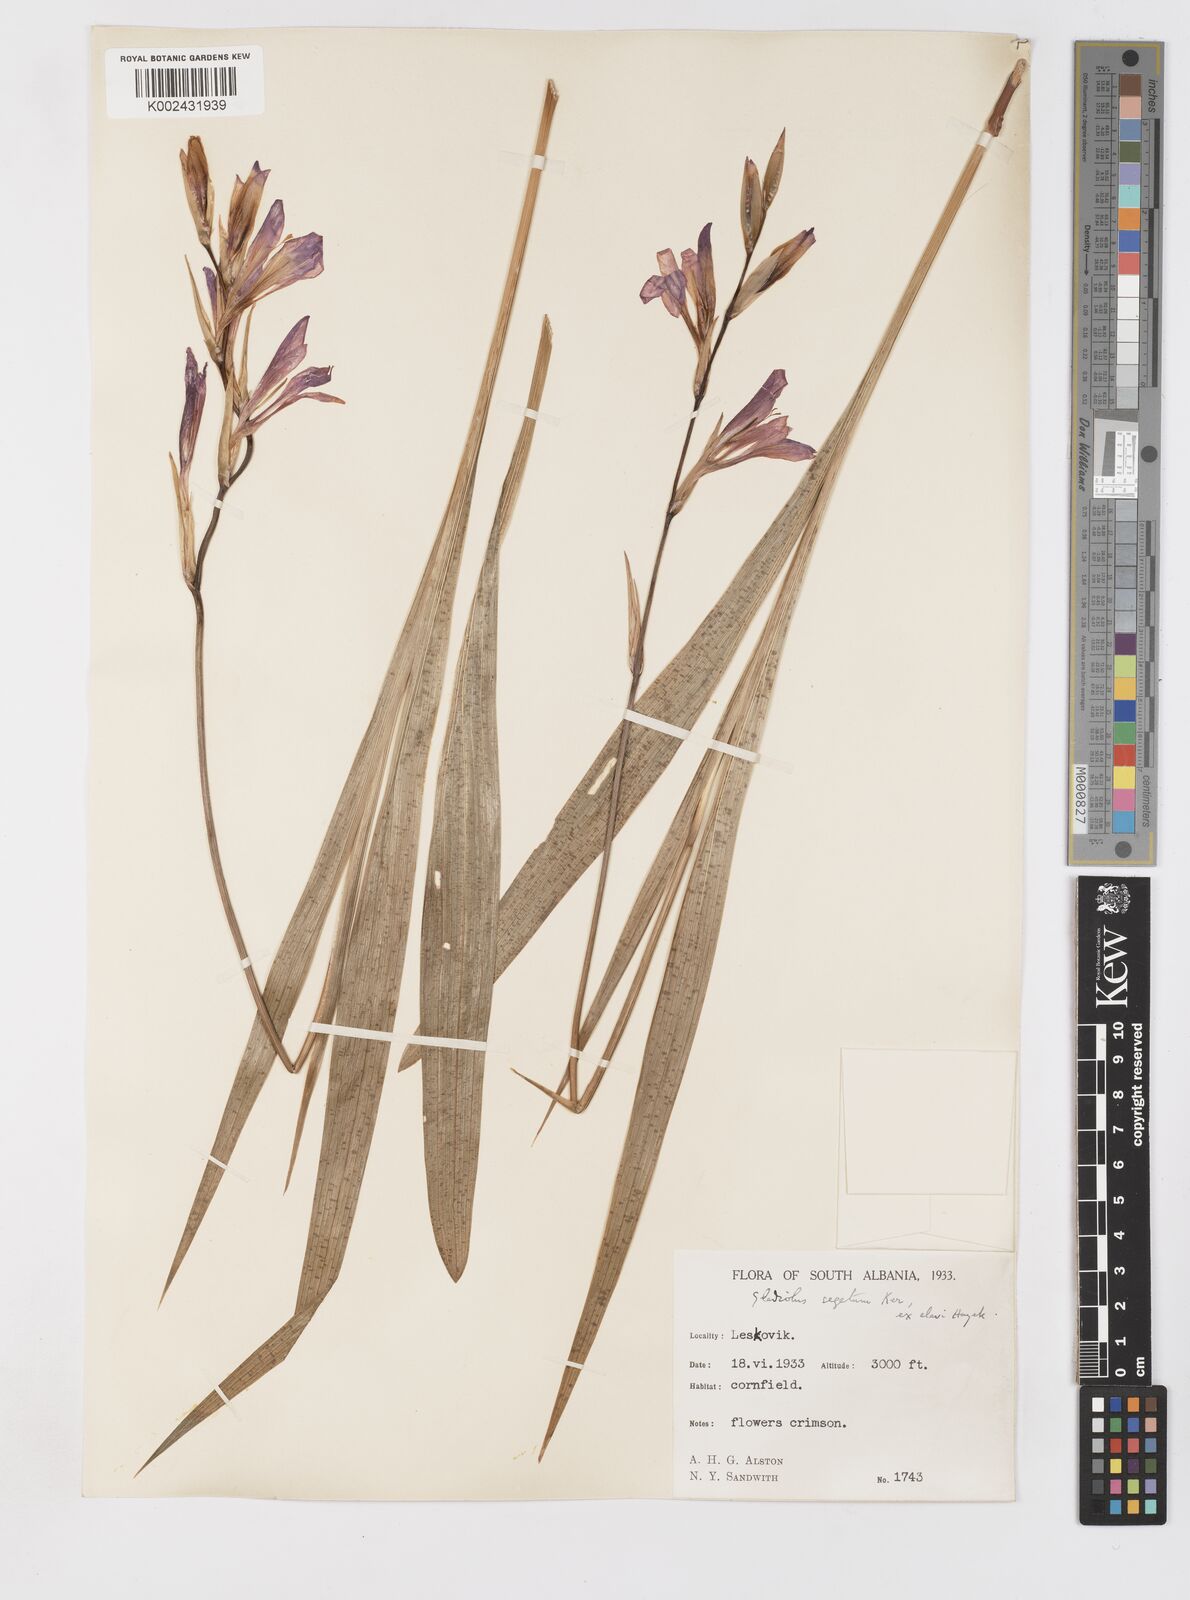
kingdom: Plantae
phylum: Tracheophyta
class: Liliopsida
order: Asparagales
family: Iridaceae
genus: Gladiolus
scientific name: Gladiolus italicus
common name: Field gladiolus
